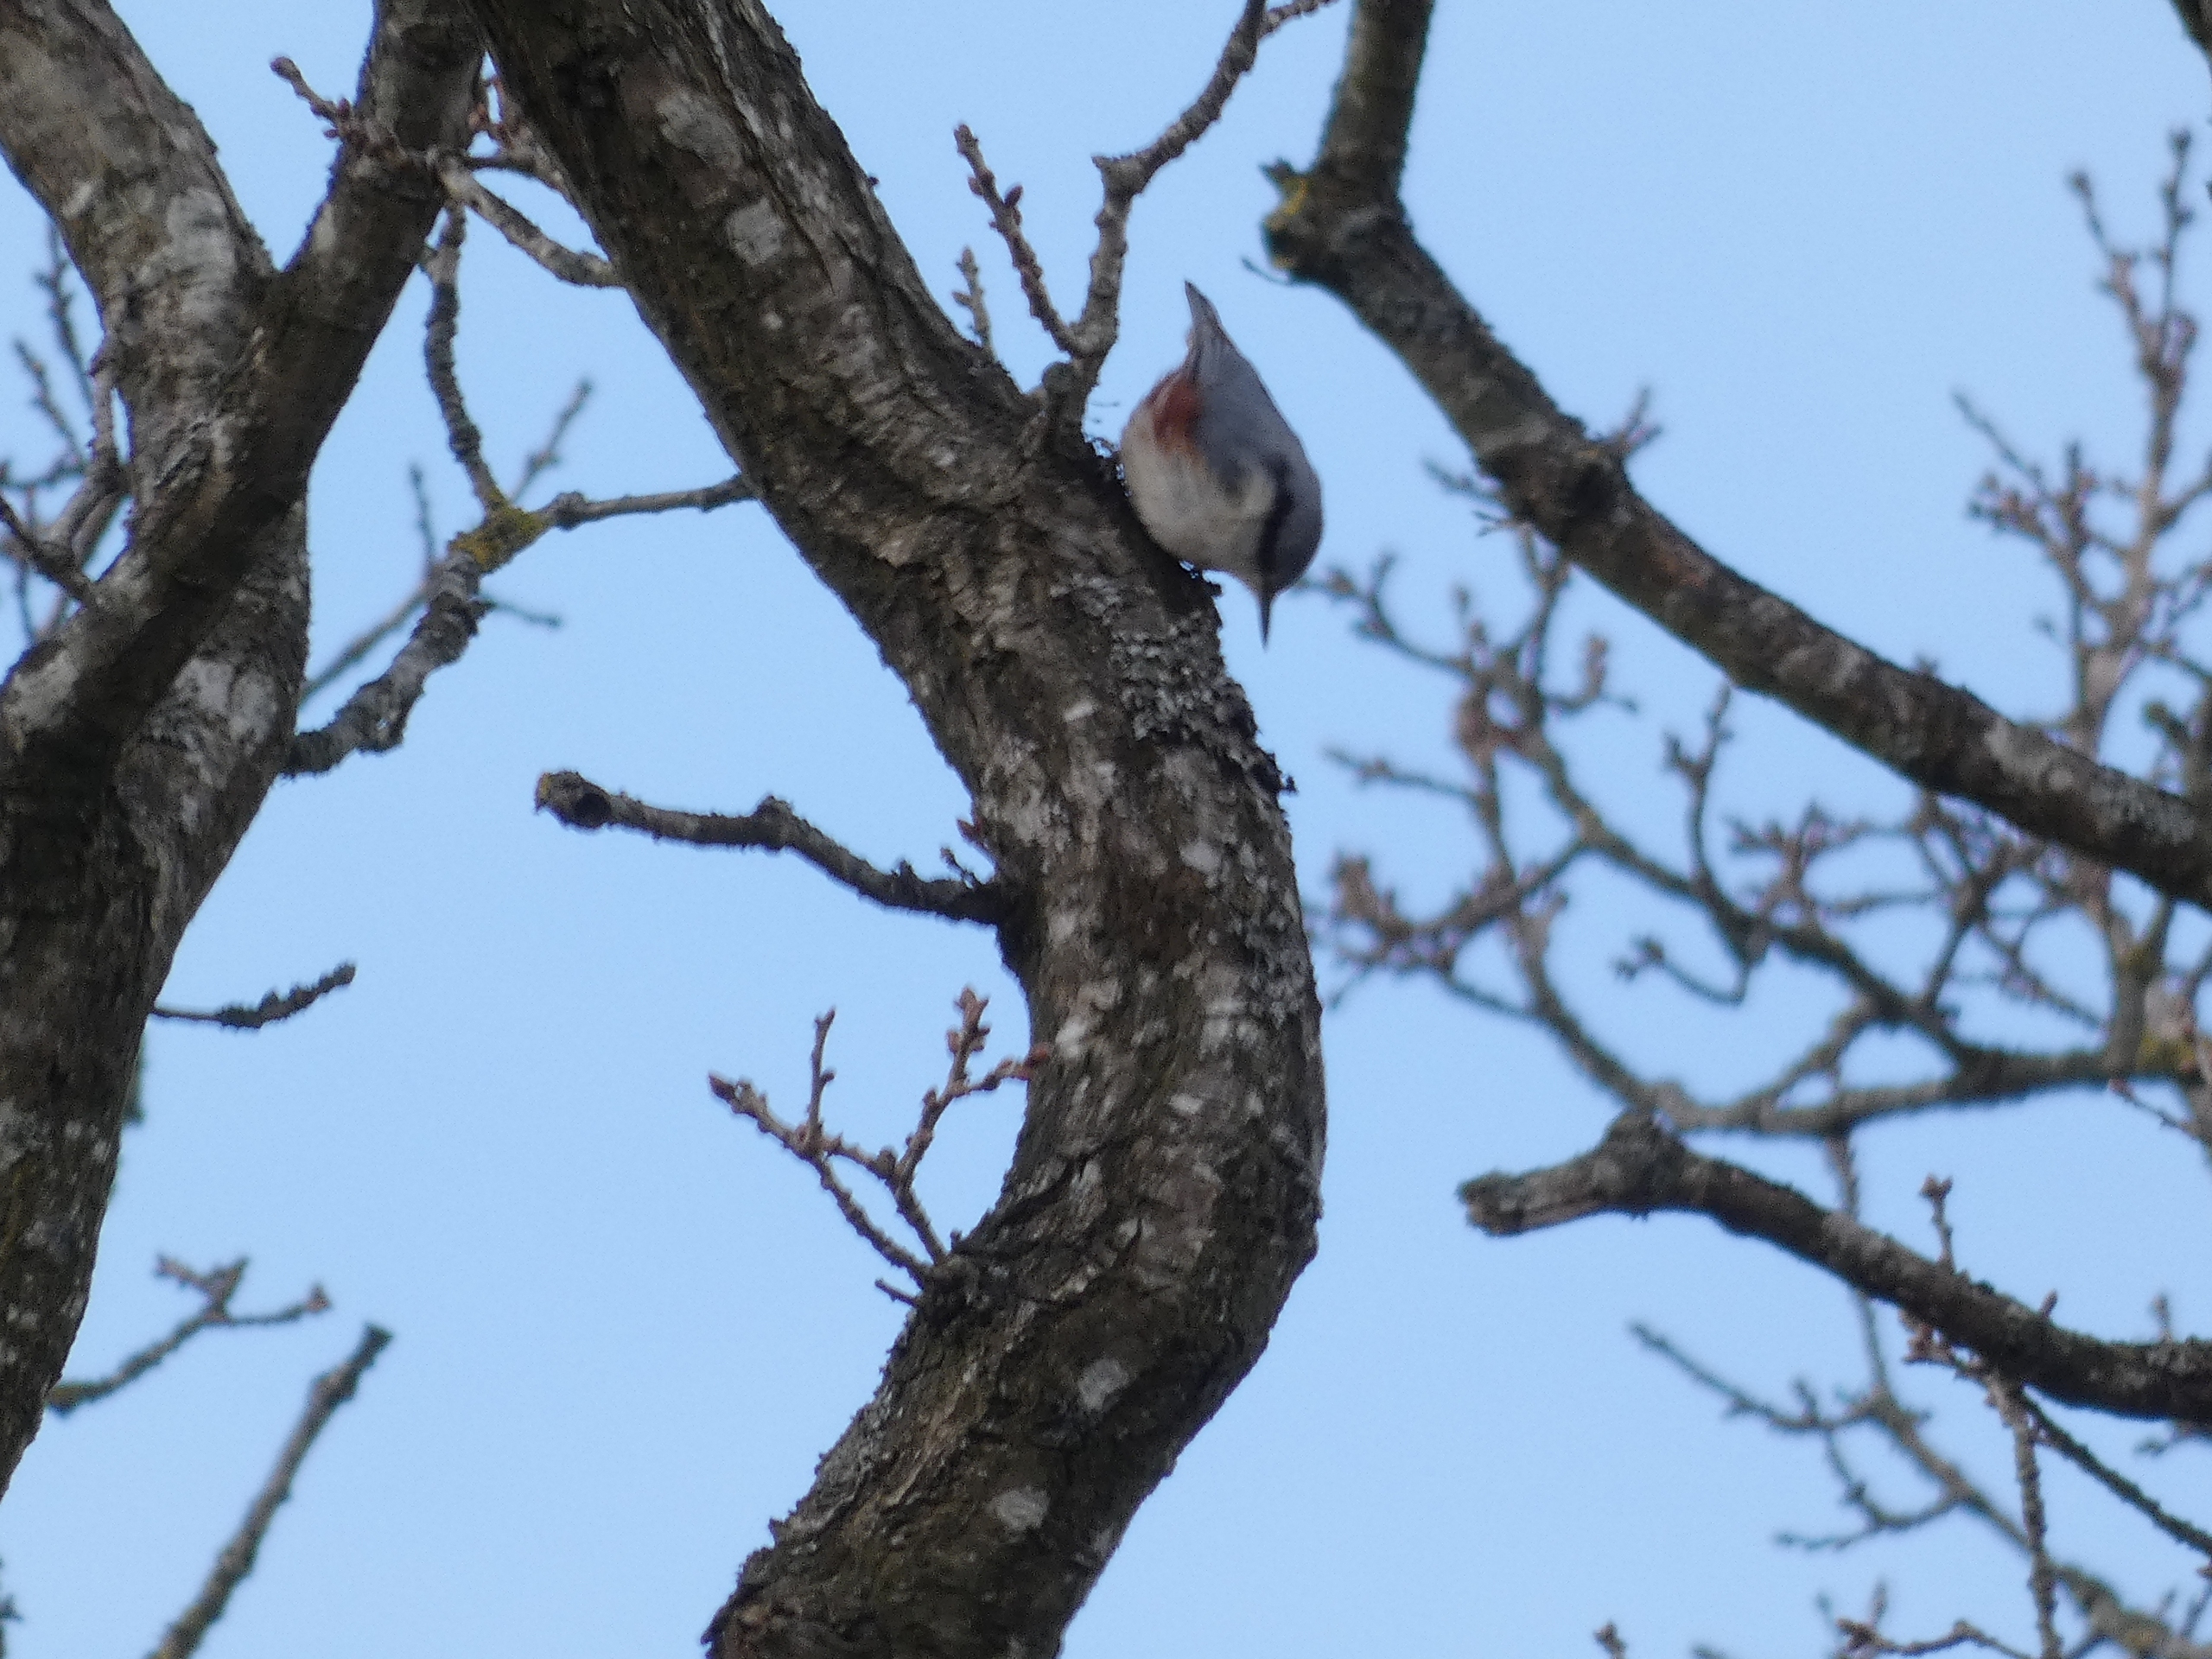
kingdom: Animalia
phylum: Chordata
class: Aves
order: Passeriformes
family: Sittidae
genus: Sitta
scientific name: Sitta europaea
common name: Spætmejse
